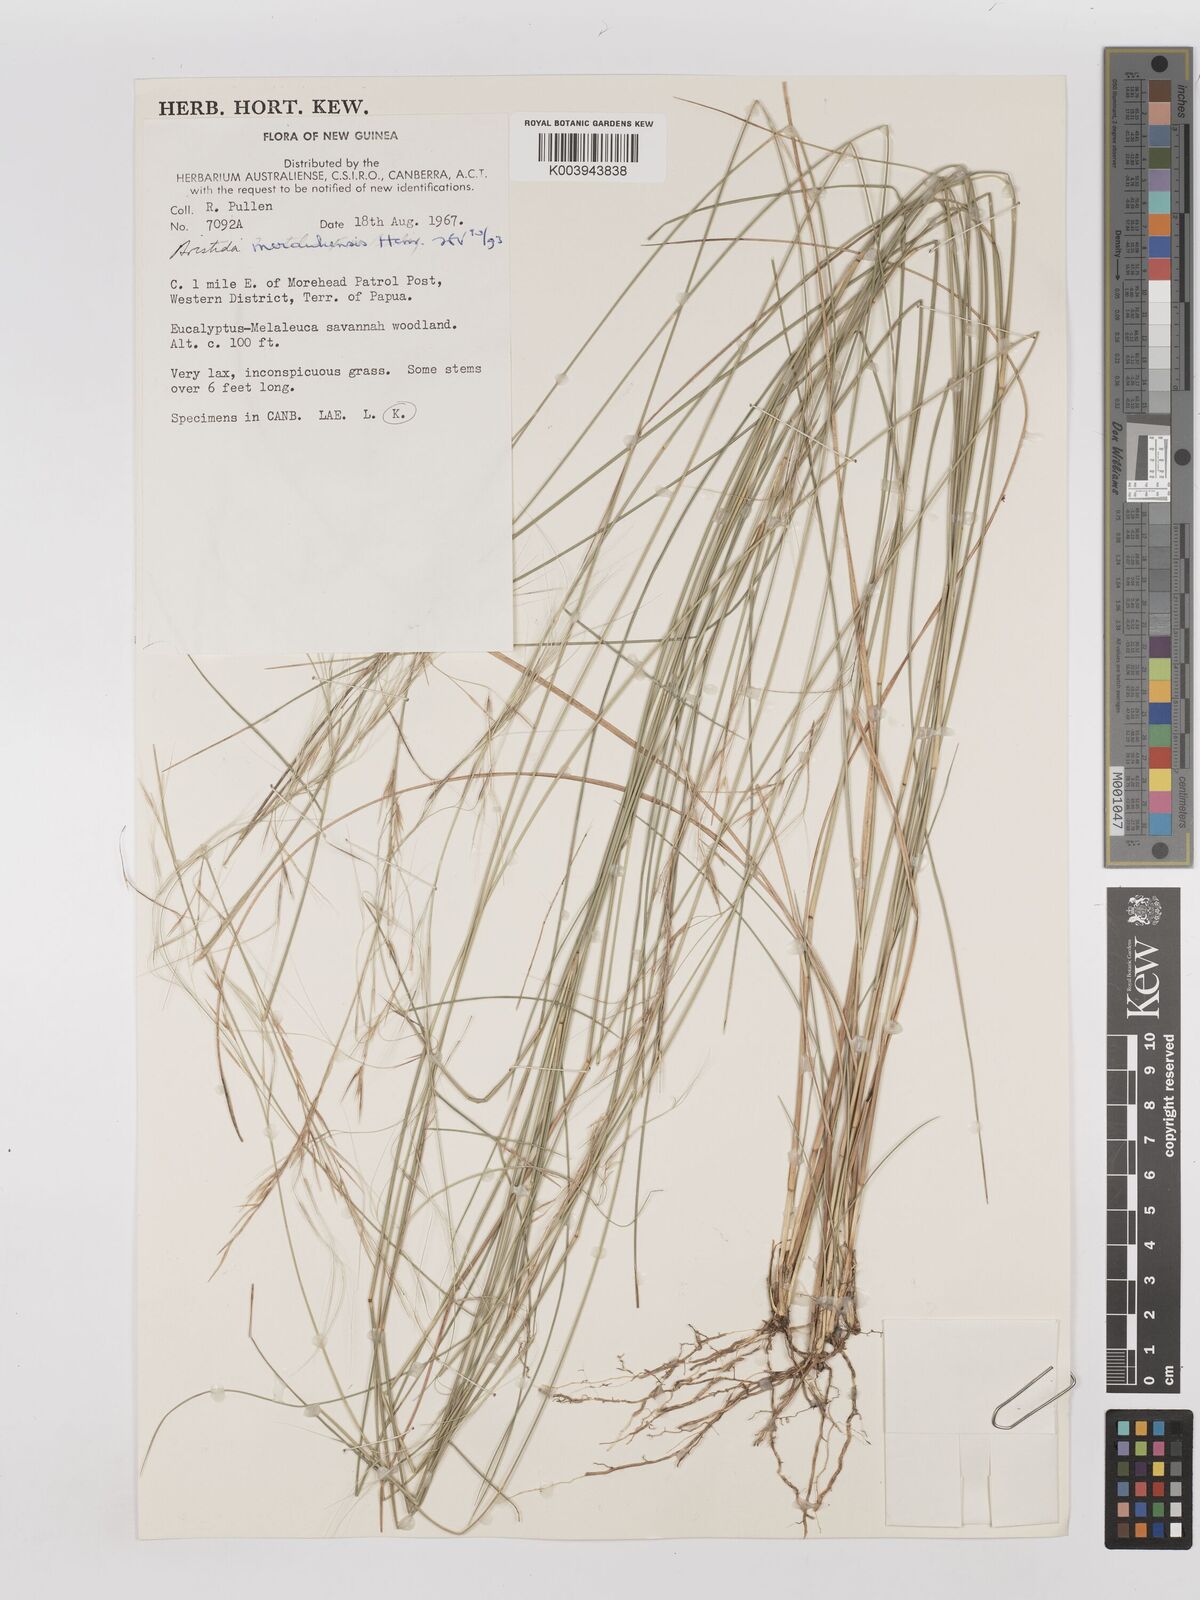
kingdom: Plantae
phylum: Tracheophyta
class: Liliopsida
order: Poales
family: Poaceae
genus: Aristida
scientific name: Aristida meraukensis
